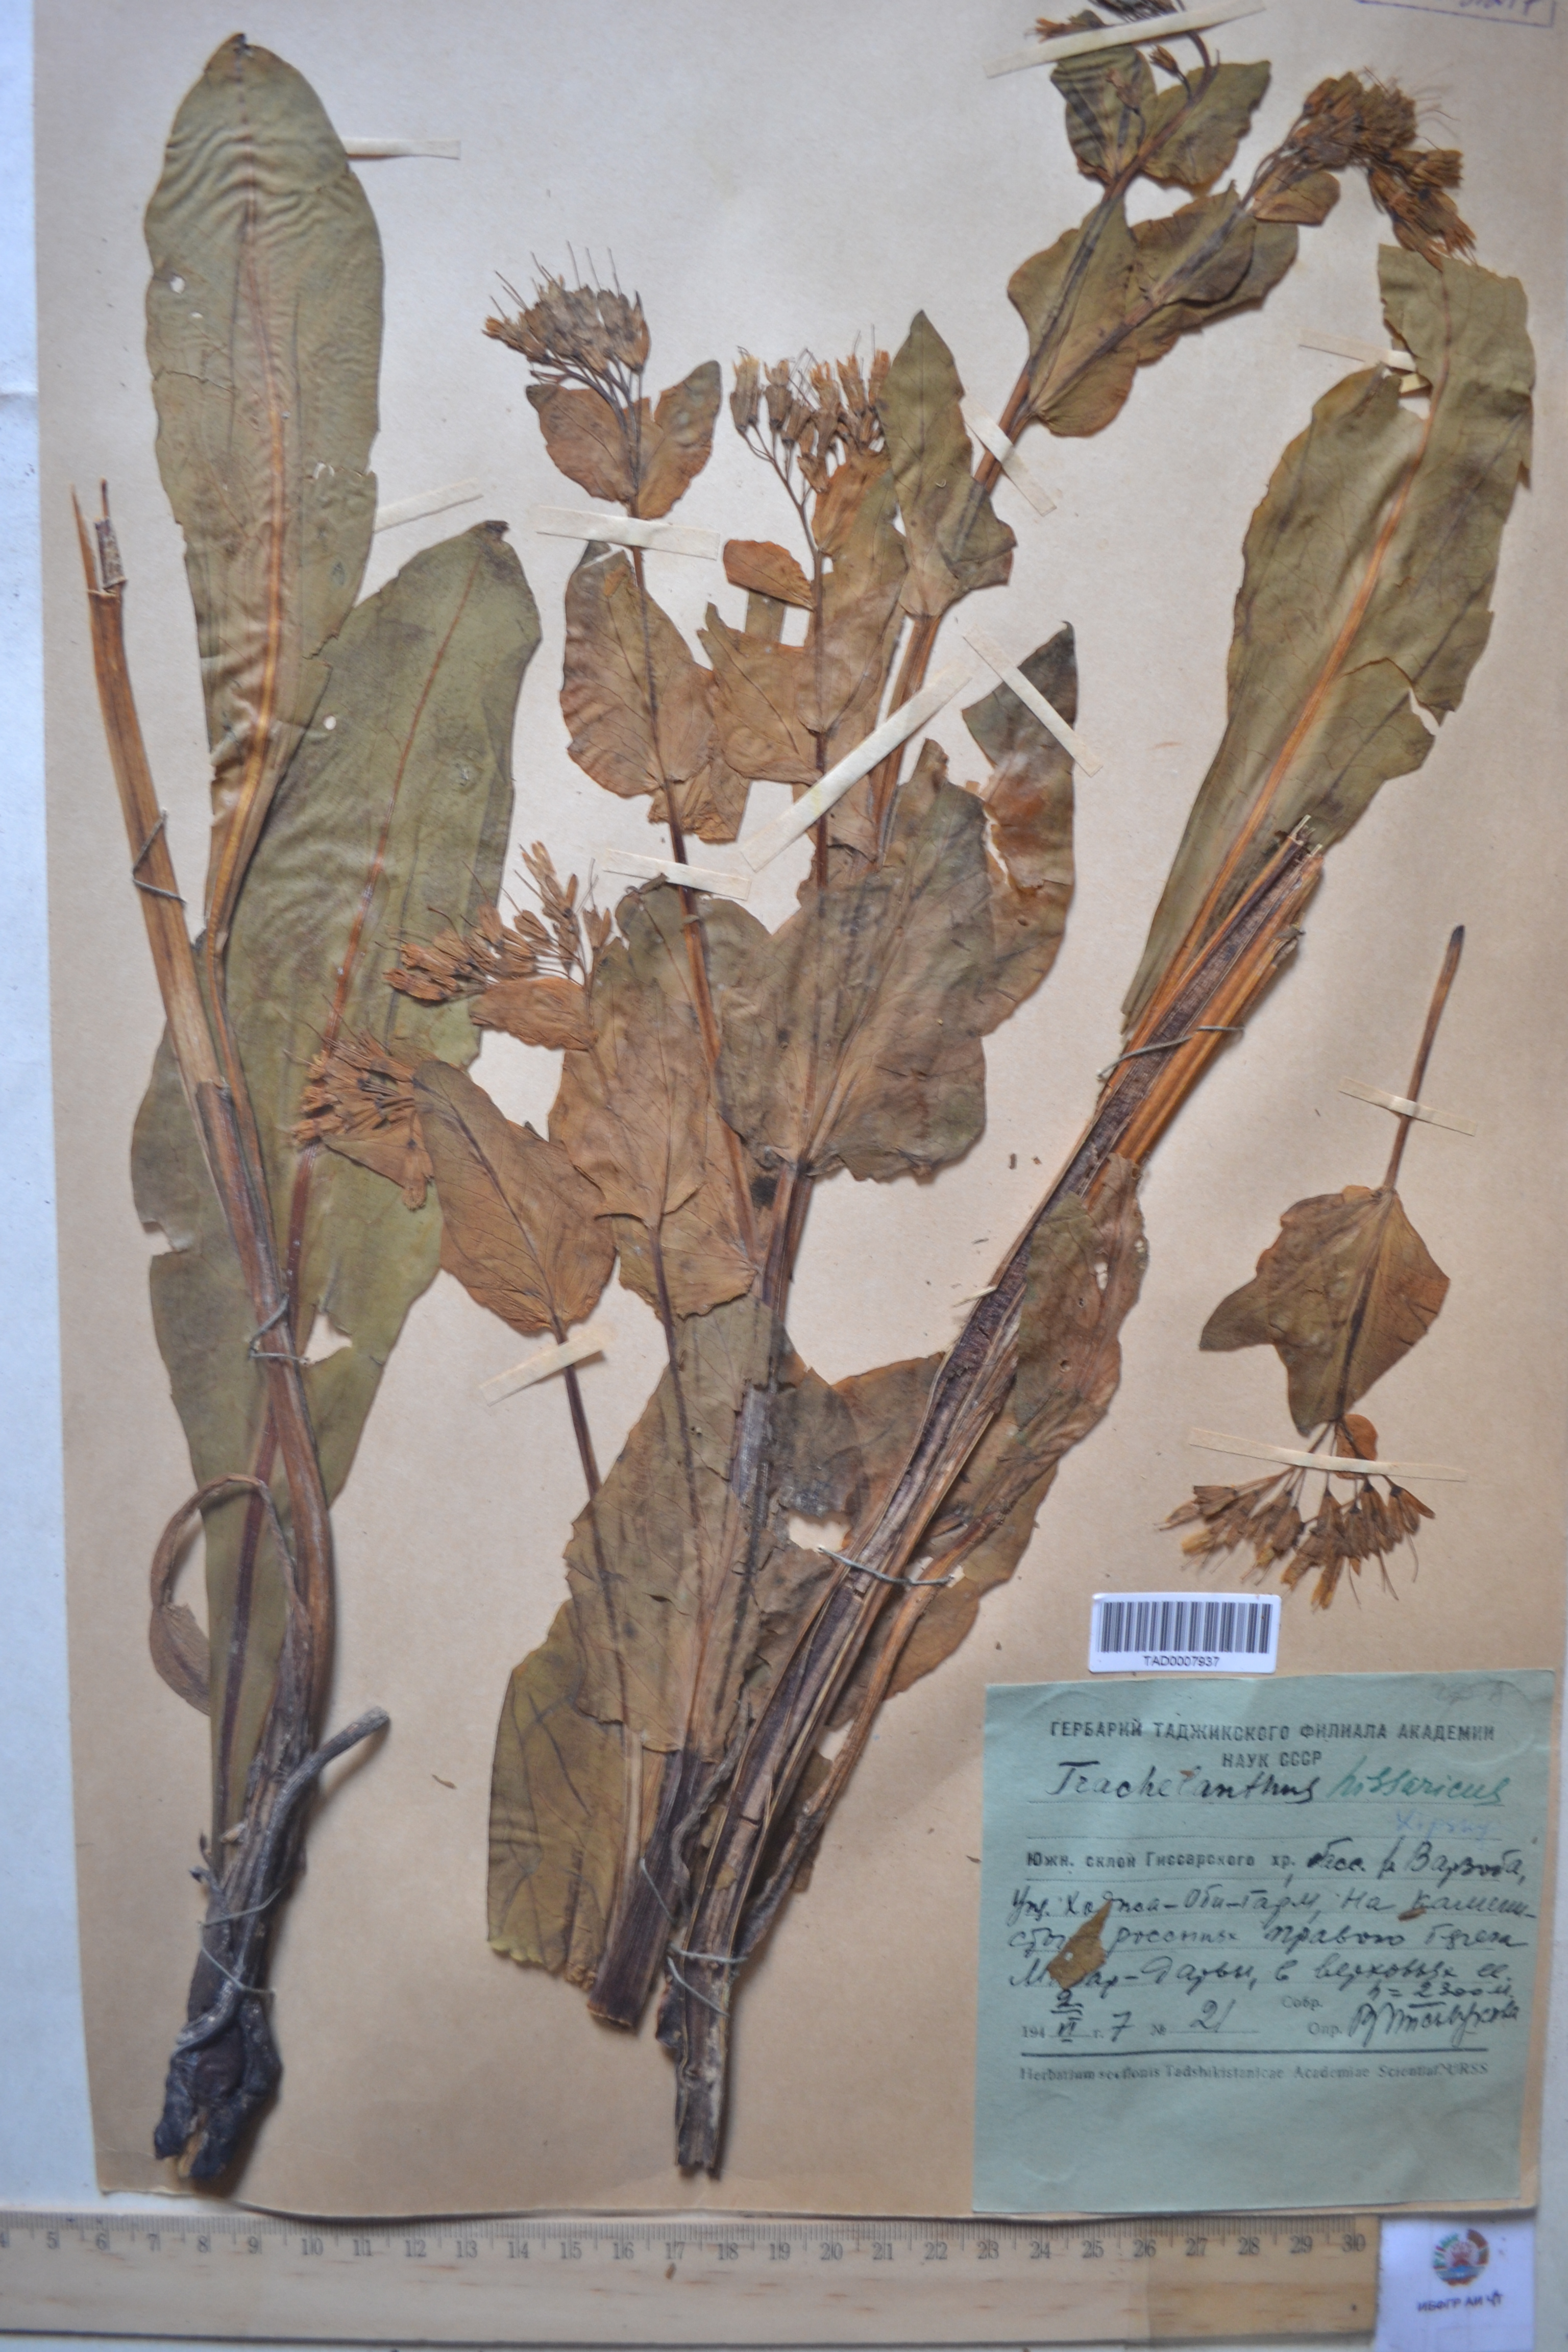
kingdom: Plantae
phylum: Tracheophyta
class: Magnoliopsida
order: Boraginales
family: Boraginaceae
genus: Lindelofia
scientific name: Lindelofia hissarica
